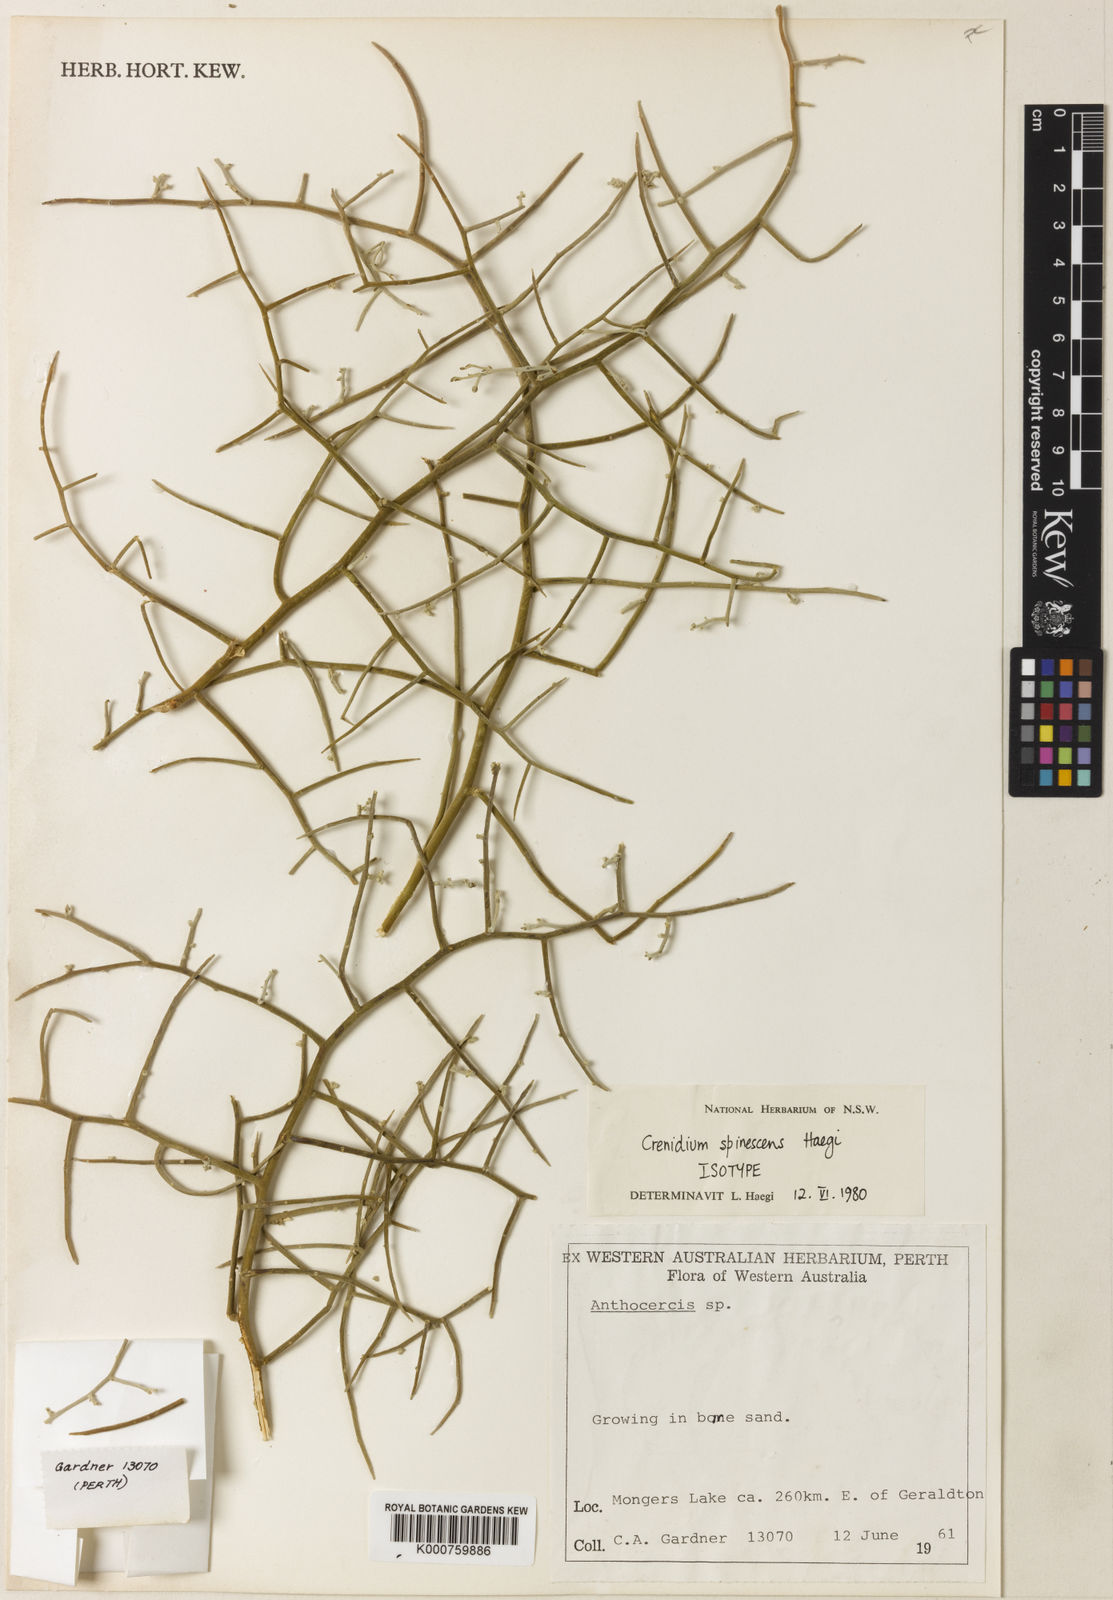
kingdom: Plantae
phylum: Tracheophyta
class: Magnoliopsida
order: Solanales
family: Solanaceae
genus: Crenidium
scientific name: Crenidium spinescens
